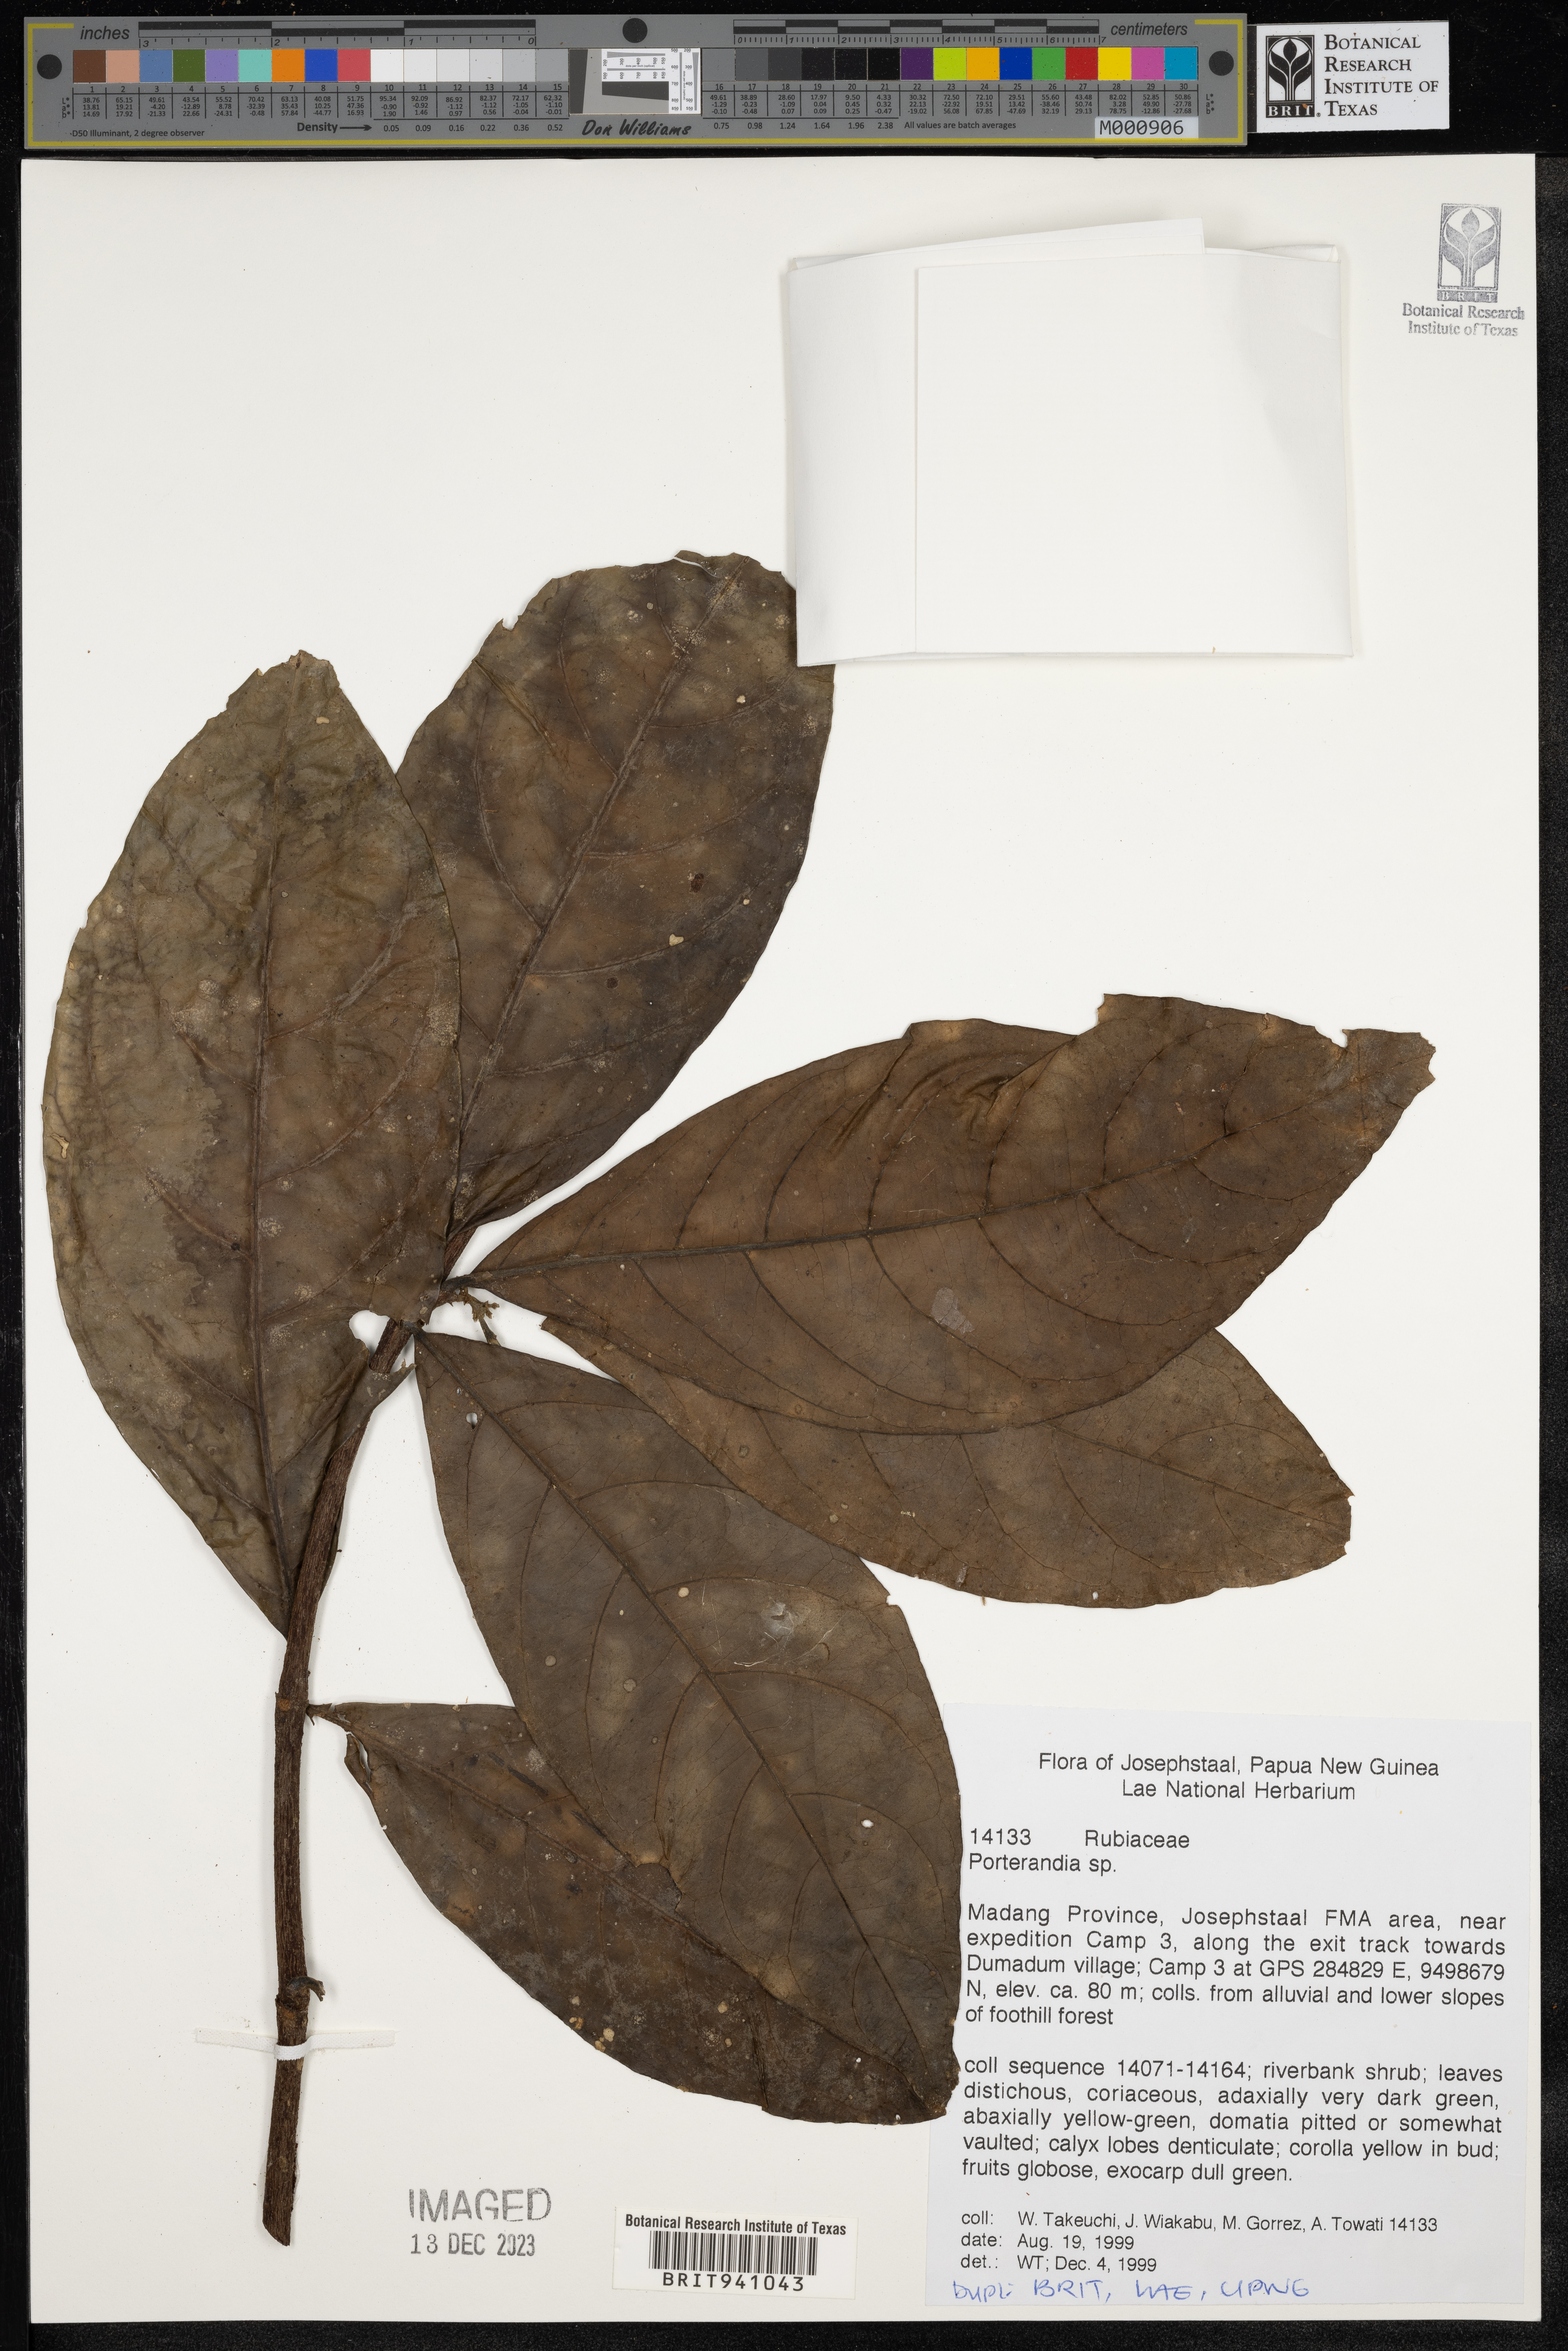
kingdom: Plantae
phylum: Tracheophyta
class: Magnoliopsida
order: Gentianales
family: Rubiaceae
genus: Porterandia
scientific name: Porterandia
